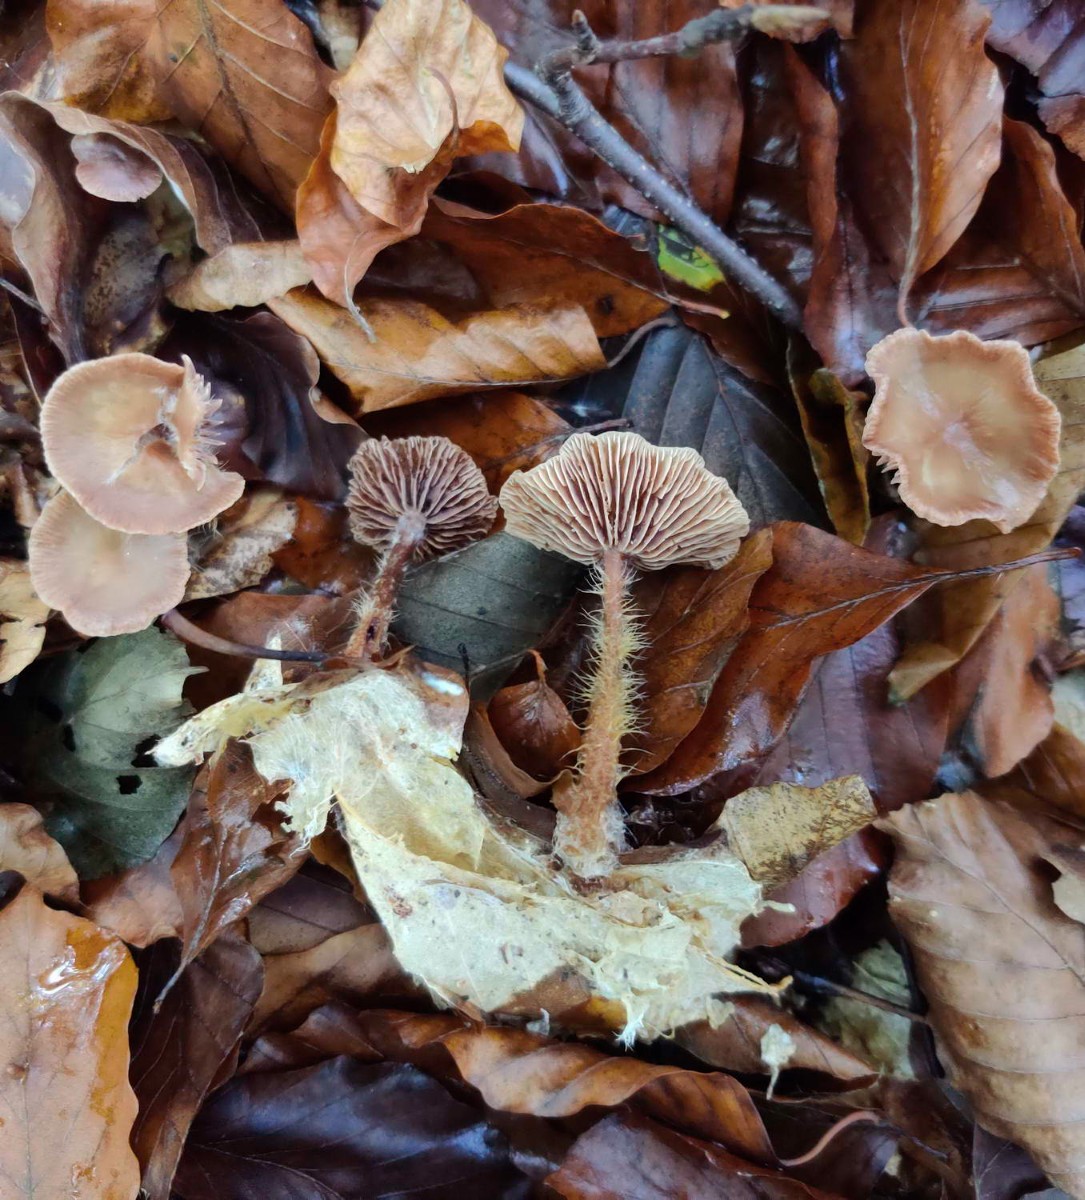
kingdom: Fungi
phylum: Basidiomycota
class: Agaricomycetes
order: Agaricales
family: Omphalotaceae
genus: Gymnopus
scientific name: Gymnopus fuscopurpureus
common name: purpurbrun fladhat
